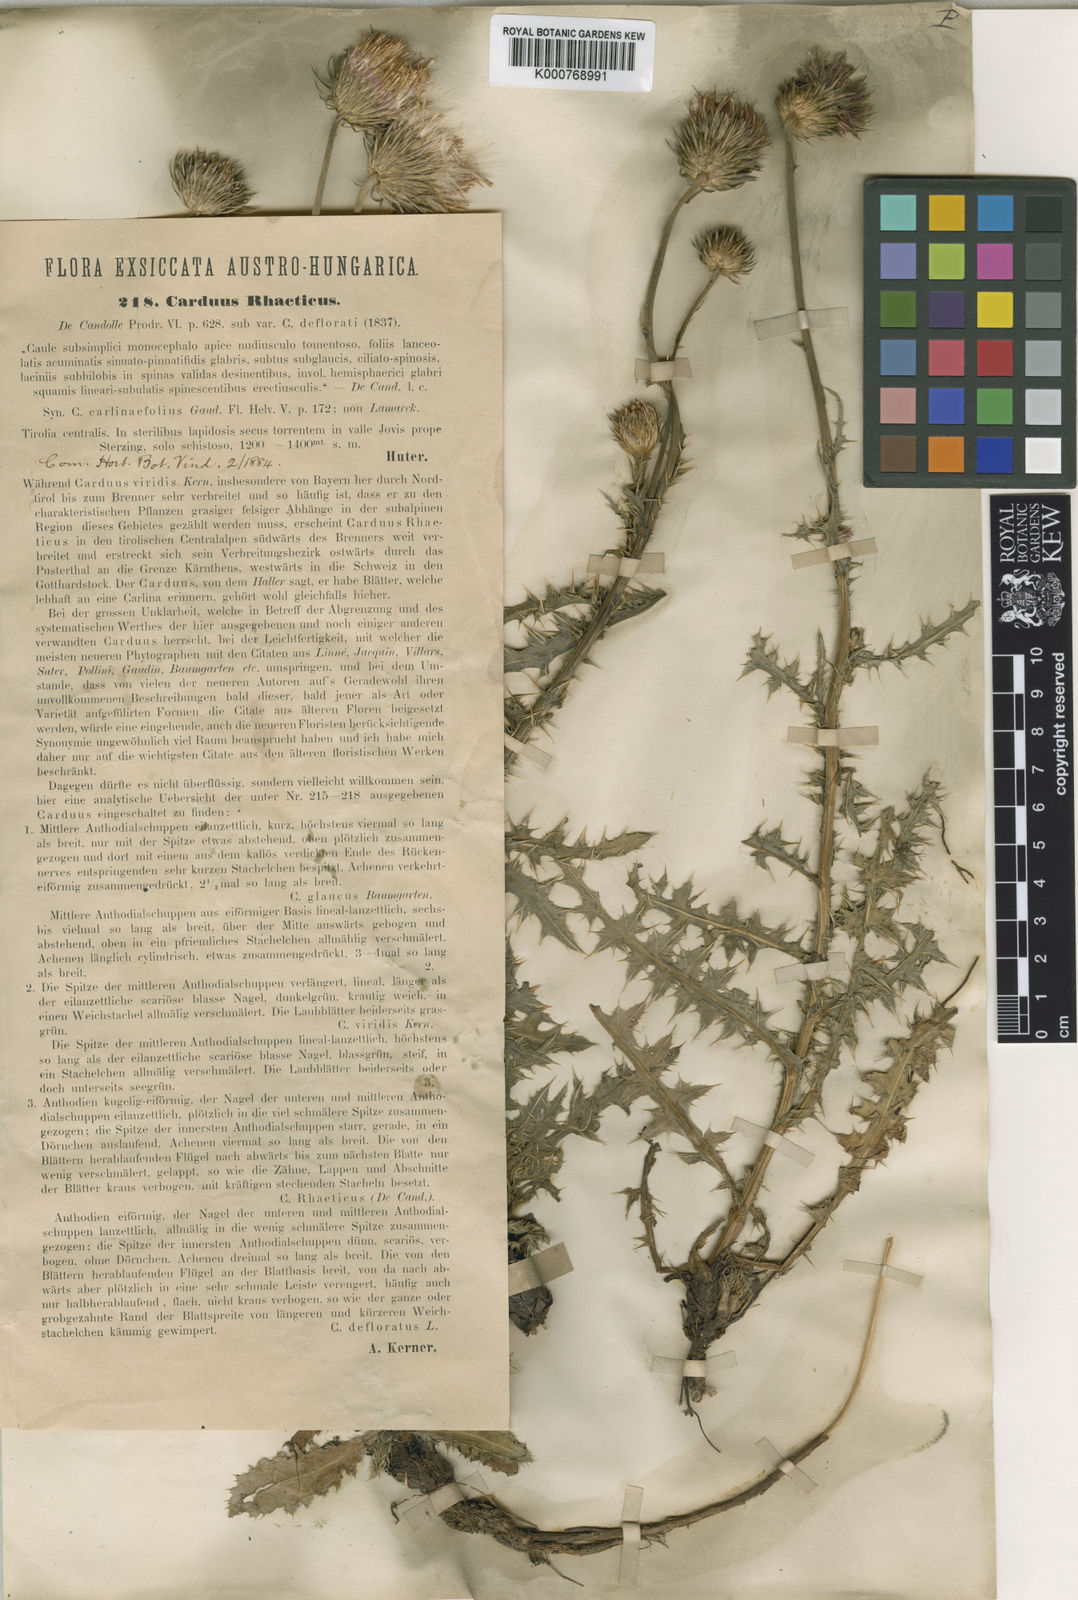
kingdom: Plantae
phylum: Tracheophyta
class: Magnoliopsida
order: Asterales
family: Asteraceae
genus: Carduus
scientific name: Carduus defloratus
